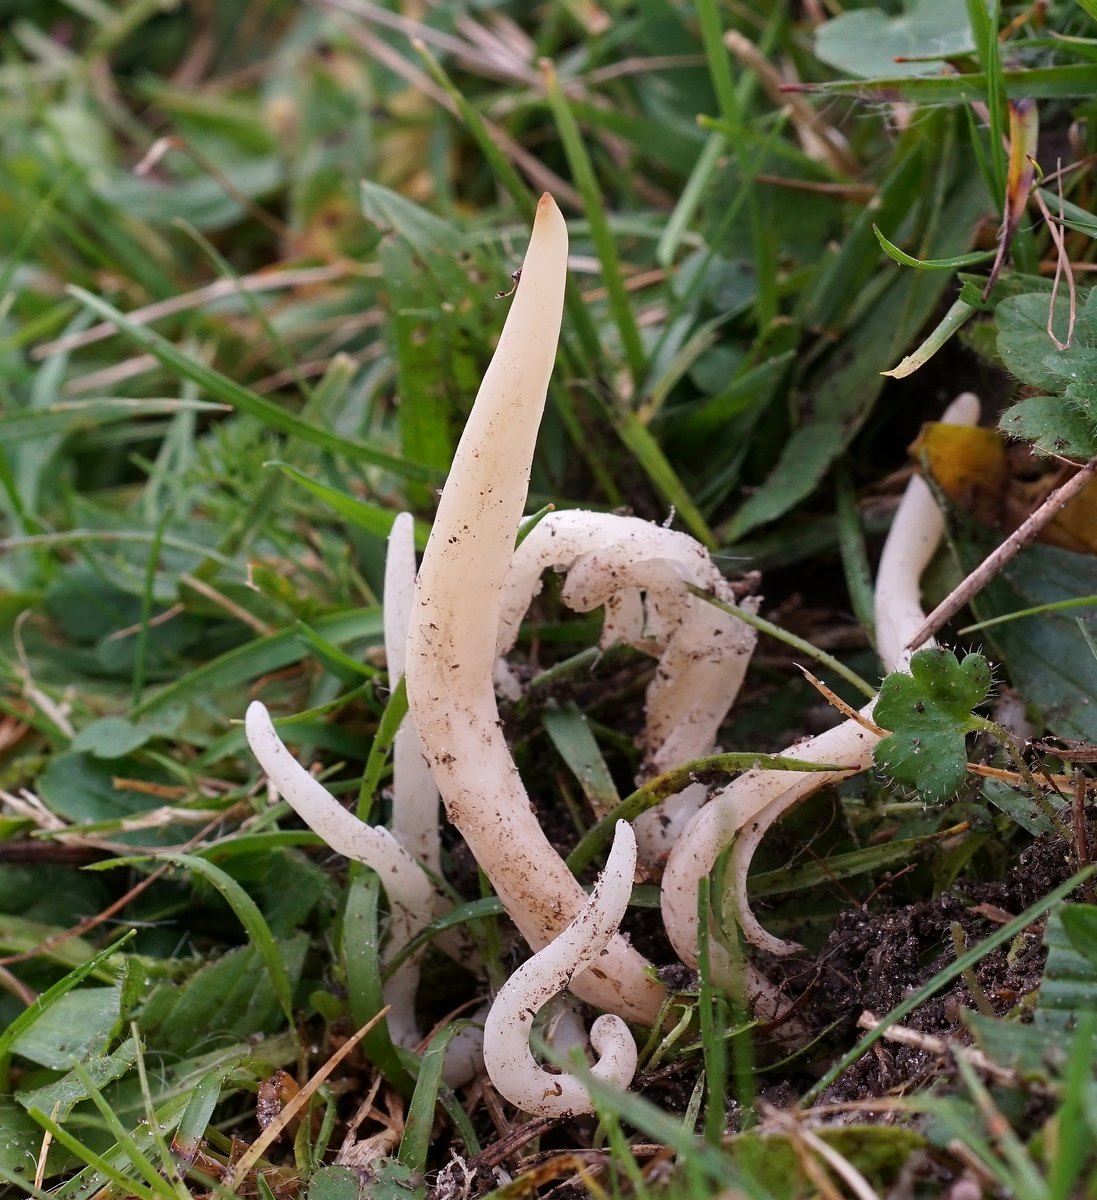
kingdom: Fungi
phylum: Basidiomycota
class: Agaricomycetes
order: Agaricales
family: Clavariaceae
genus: Clavaria
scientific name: Clavaria falcata
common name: hvid køllesvamp
